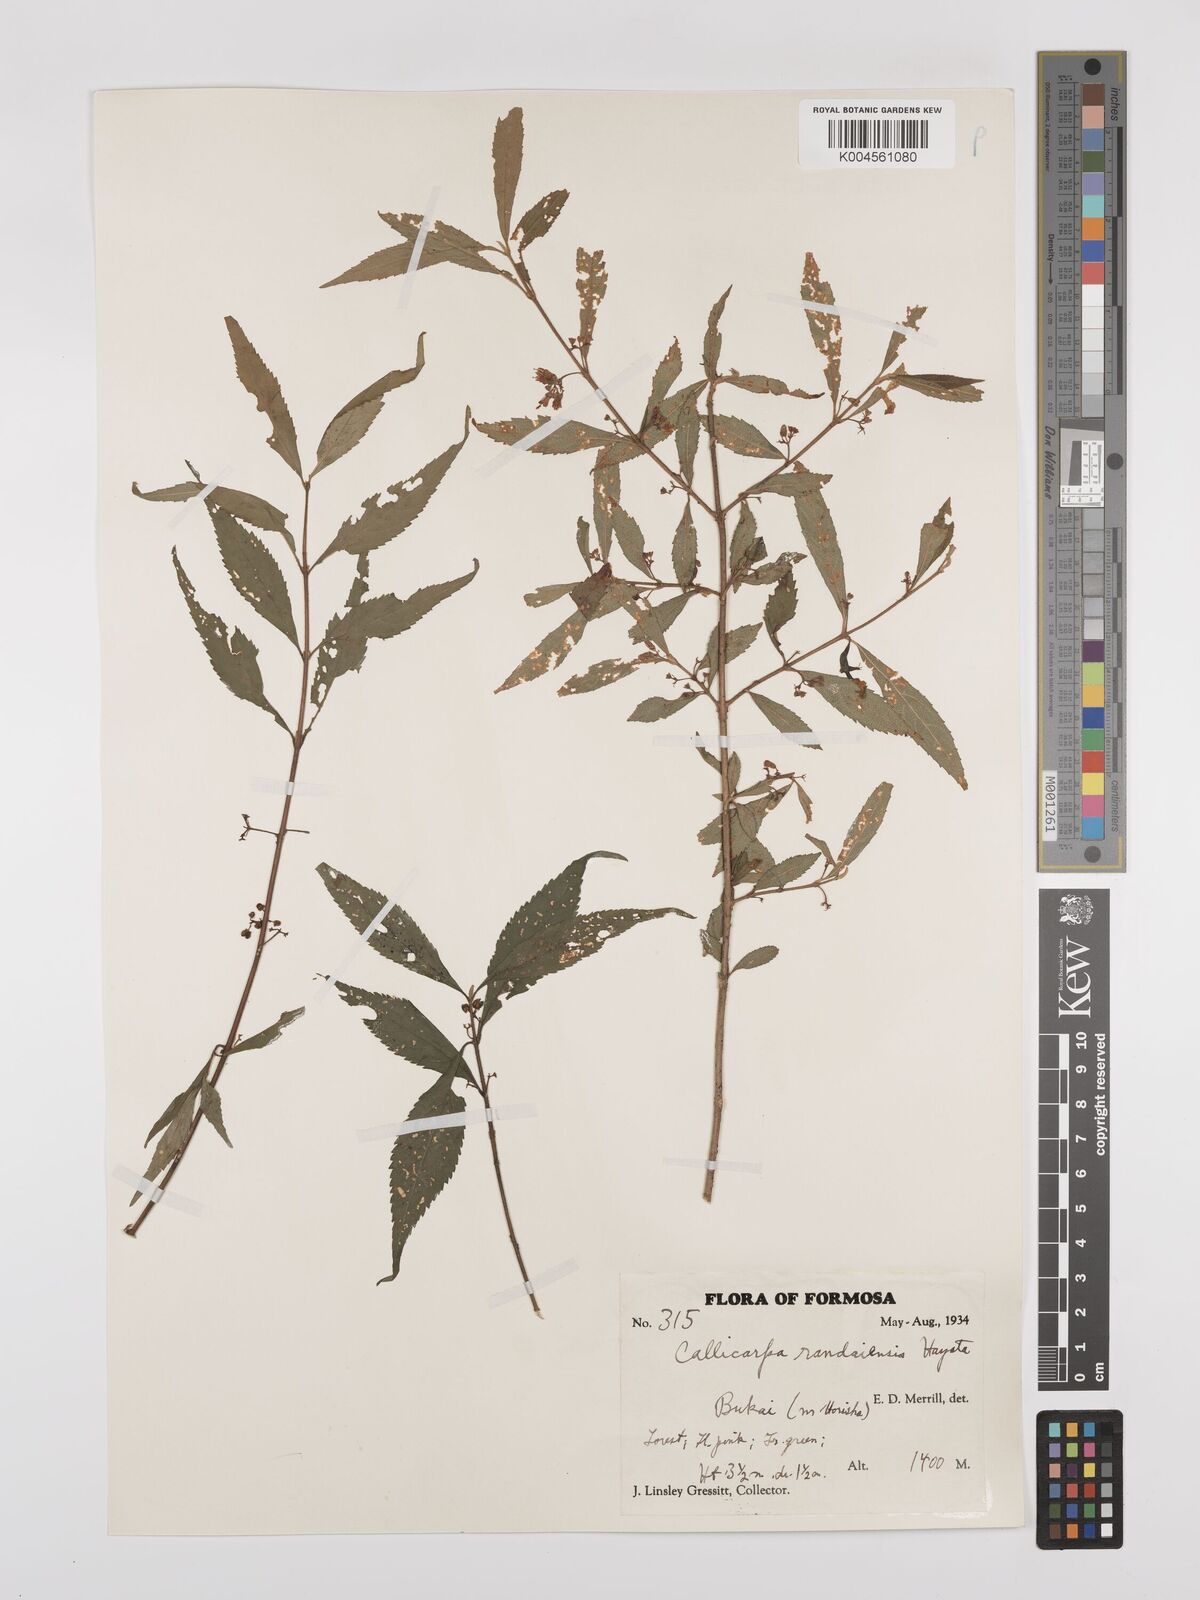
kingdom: Plantae
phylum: Tracheophyta
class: Magnoliopsida
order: Lamiales
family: Lamiaceae
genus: Callicarpa
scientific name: Callicarpa randaiensis
